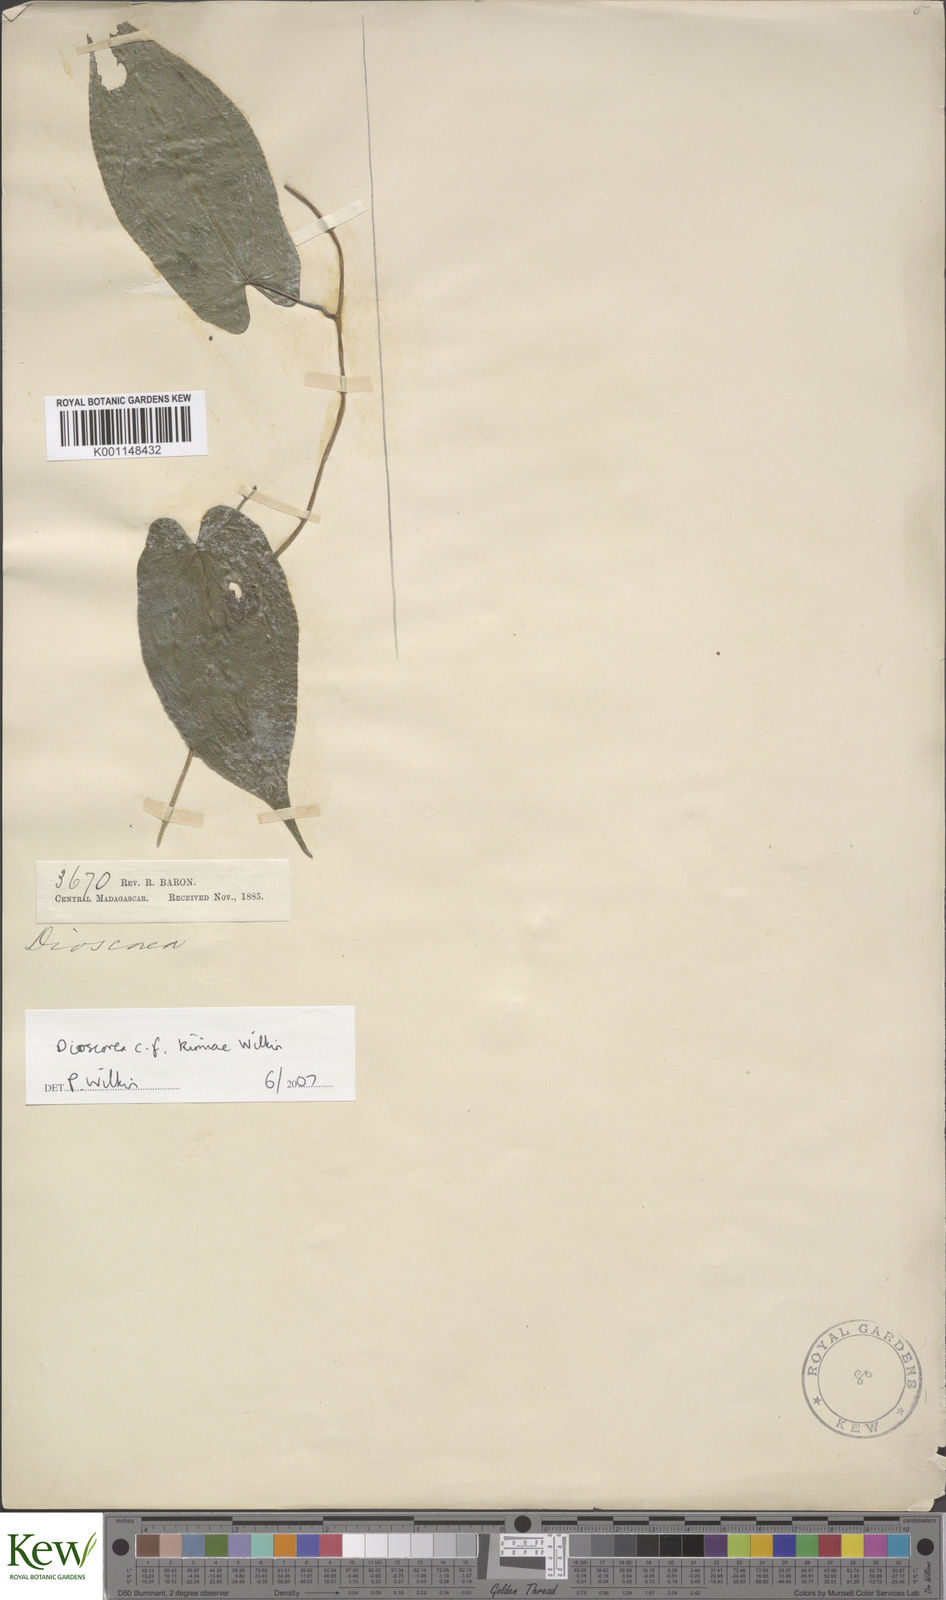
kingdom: Plantae
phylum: Tracheophyta
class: Liliopsida
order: Dioscoreales
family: Dioscoreaceae
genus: Dioscorea
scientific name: Dioscorea kimiae
